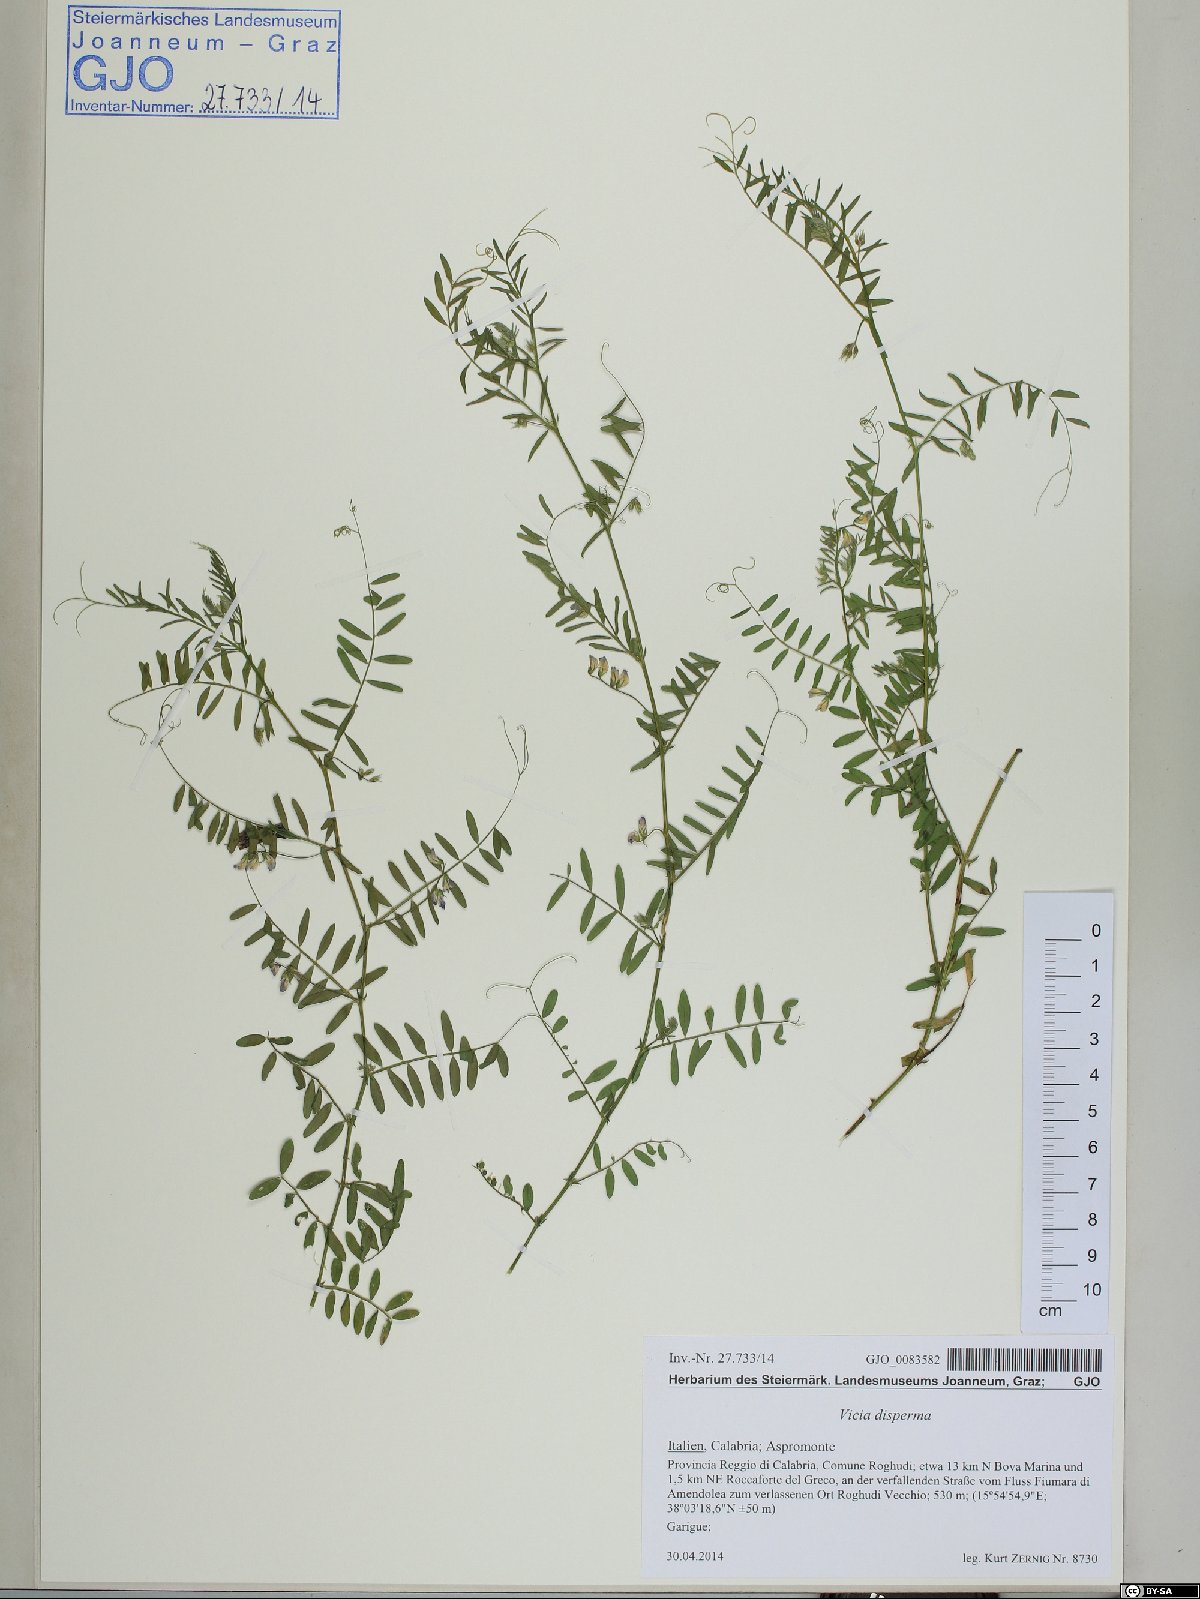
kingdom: Plantae
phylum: Tracheophyta
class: Magnoliopsida
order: Fabales
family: Fabaceae
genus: Vicia
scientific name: Vicia disperma
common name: European vetch
